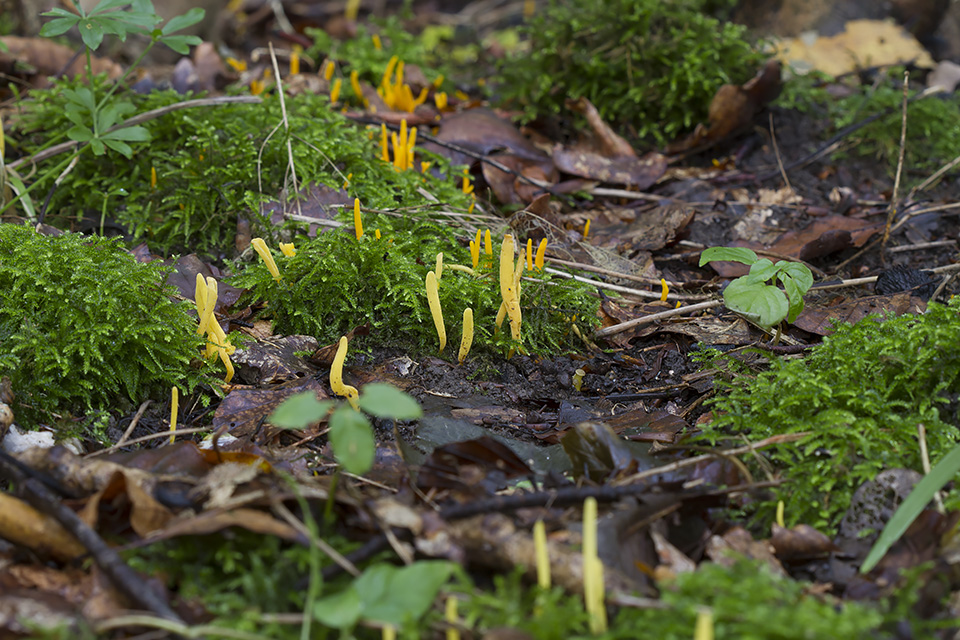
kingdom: Fungi
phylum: Basidiomycota
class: Agaricomycetes
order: Agaricales
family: Clavariaceae
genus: Clavulinopsis
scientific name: Clavulinopsis helvola
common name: orangegul køllesvamp
